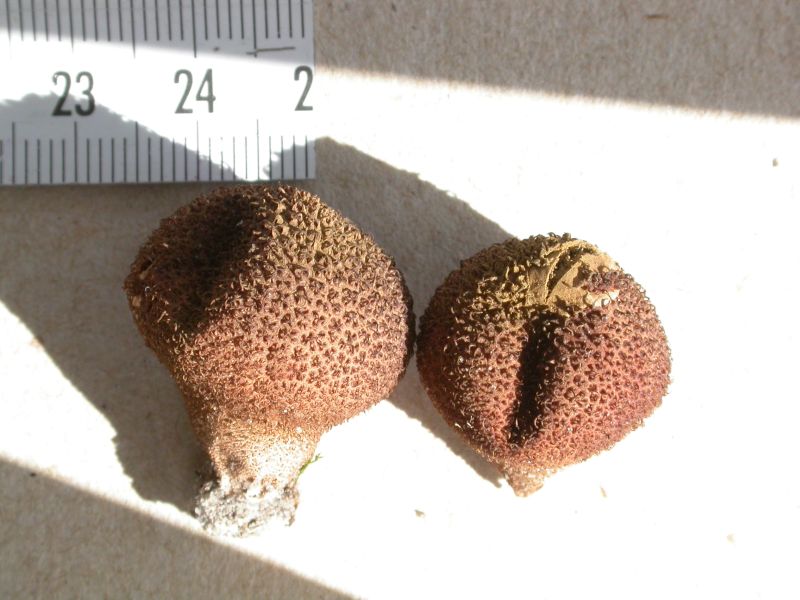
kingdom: Fungi
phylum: Basidiomycota
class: Agaricomycetes
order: Agaricales
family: Lycoperdaceae
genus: Lycoperdon
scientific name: Lycoperdon umbrinum
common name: umbrabrun støvbold
